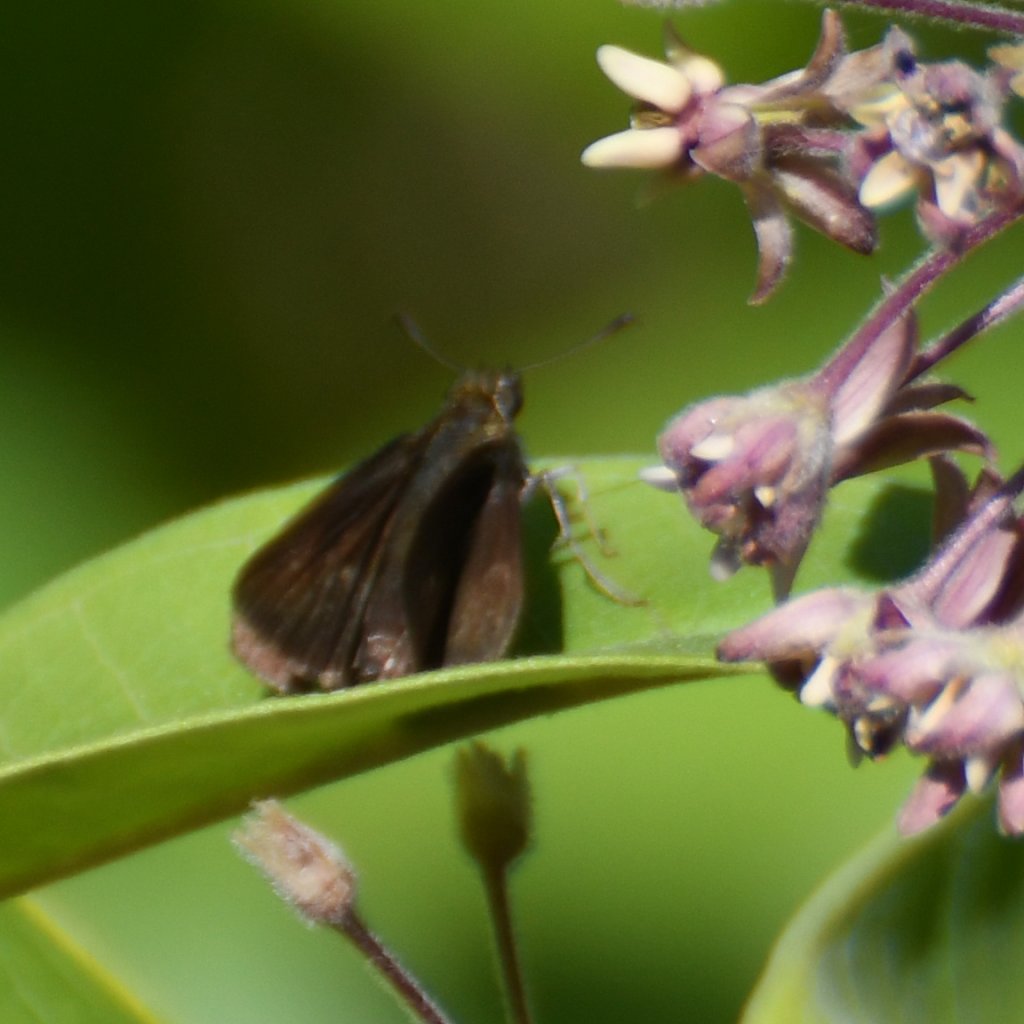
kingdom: Animalia
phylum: Arthropoda
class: Insecta
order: Lepidoptera
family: Hesperiidae
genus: Euphyes
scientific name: Euphyes vestris
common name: Dun Skipper
